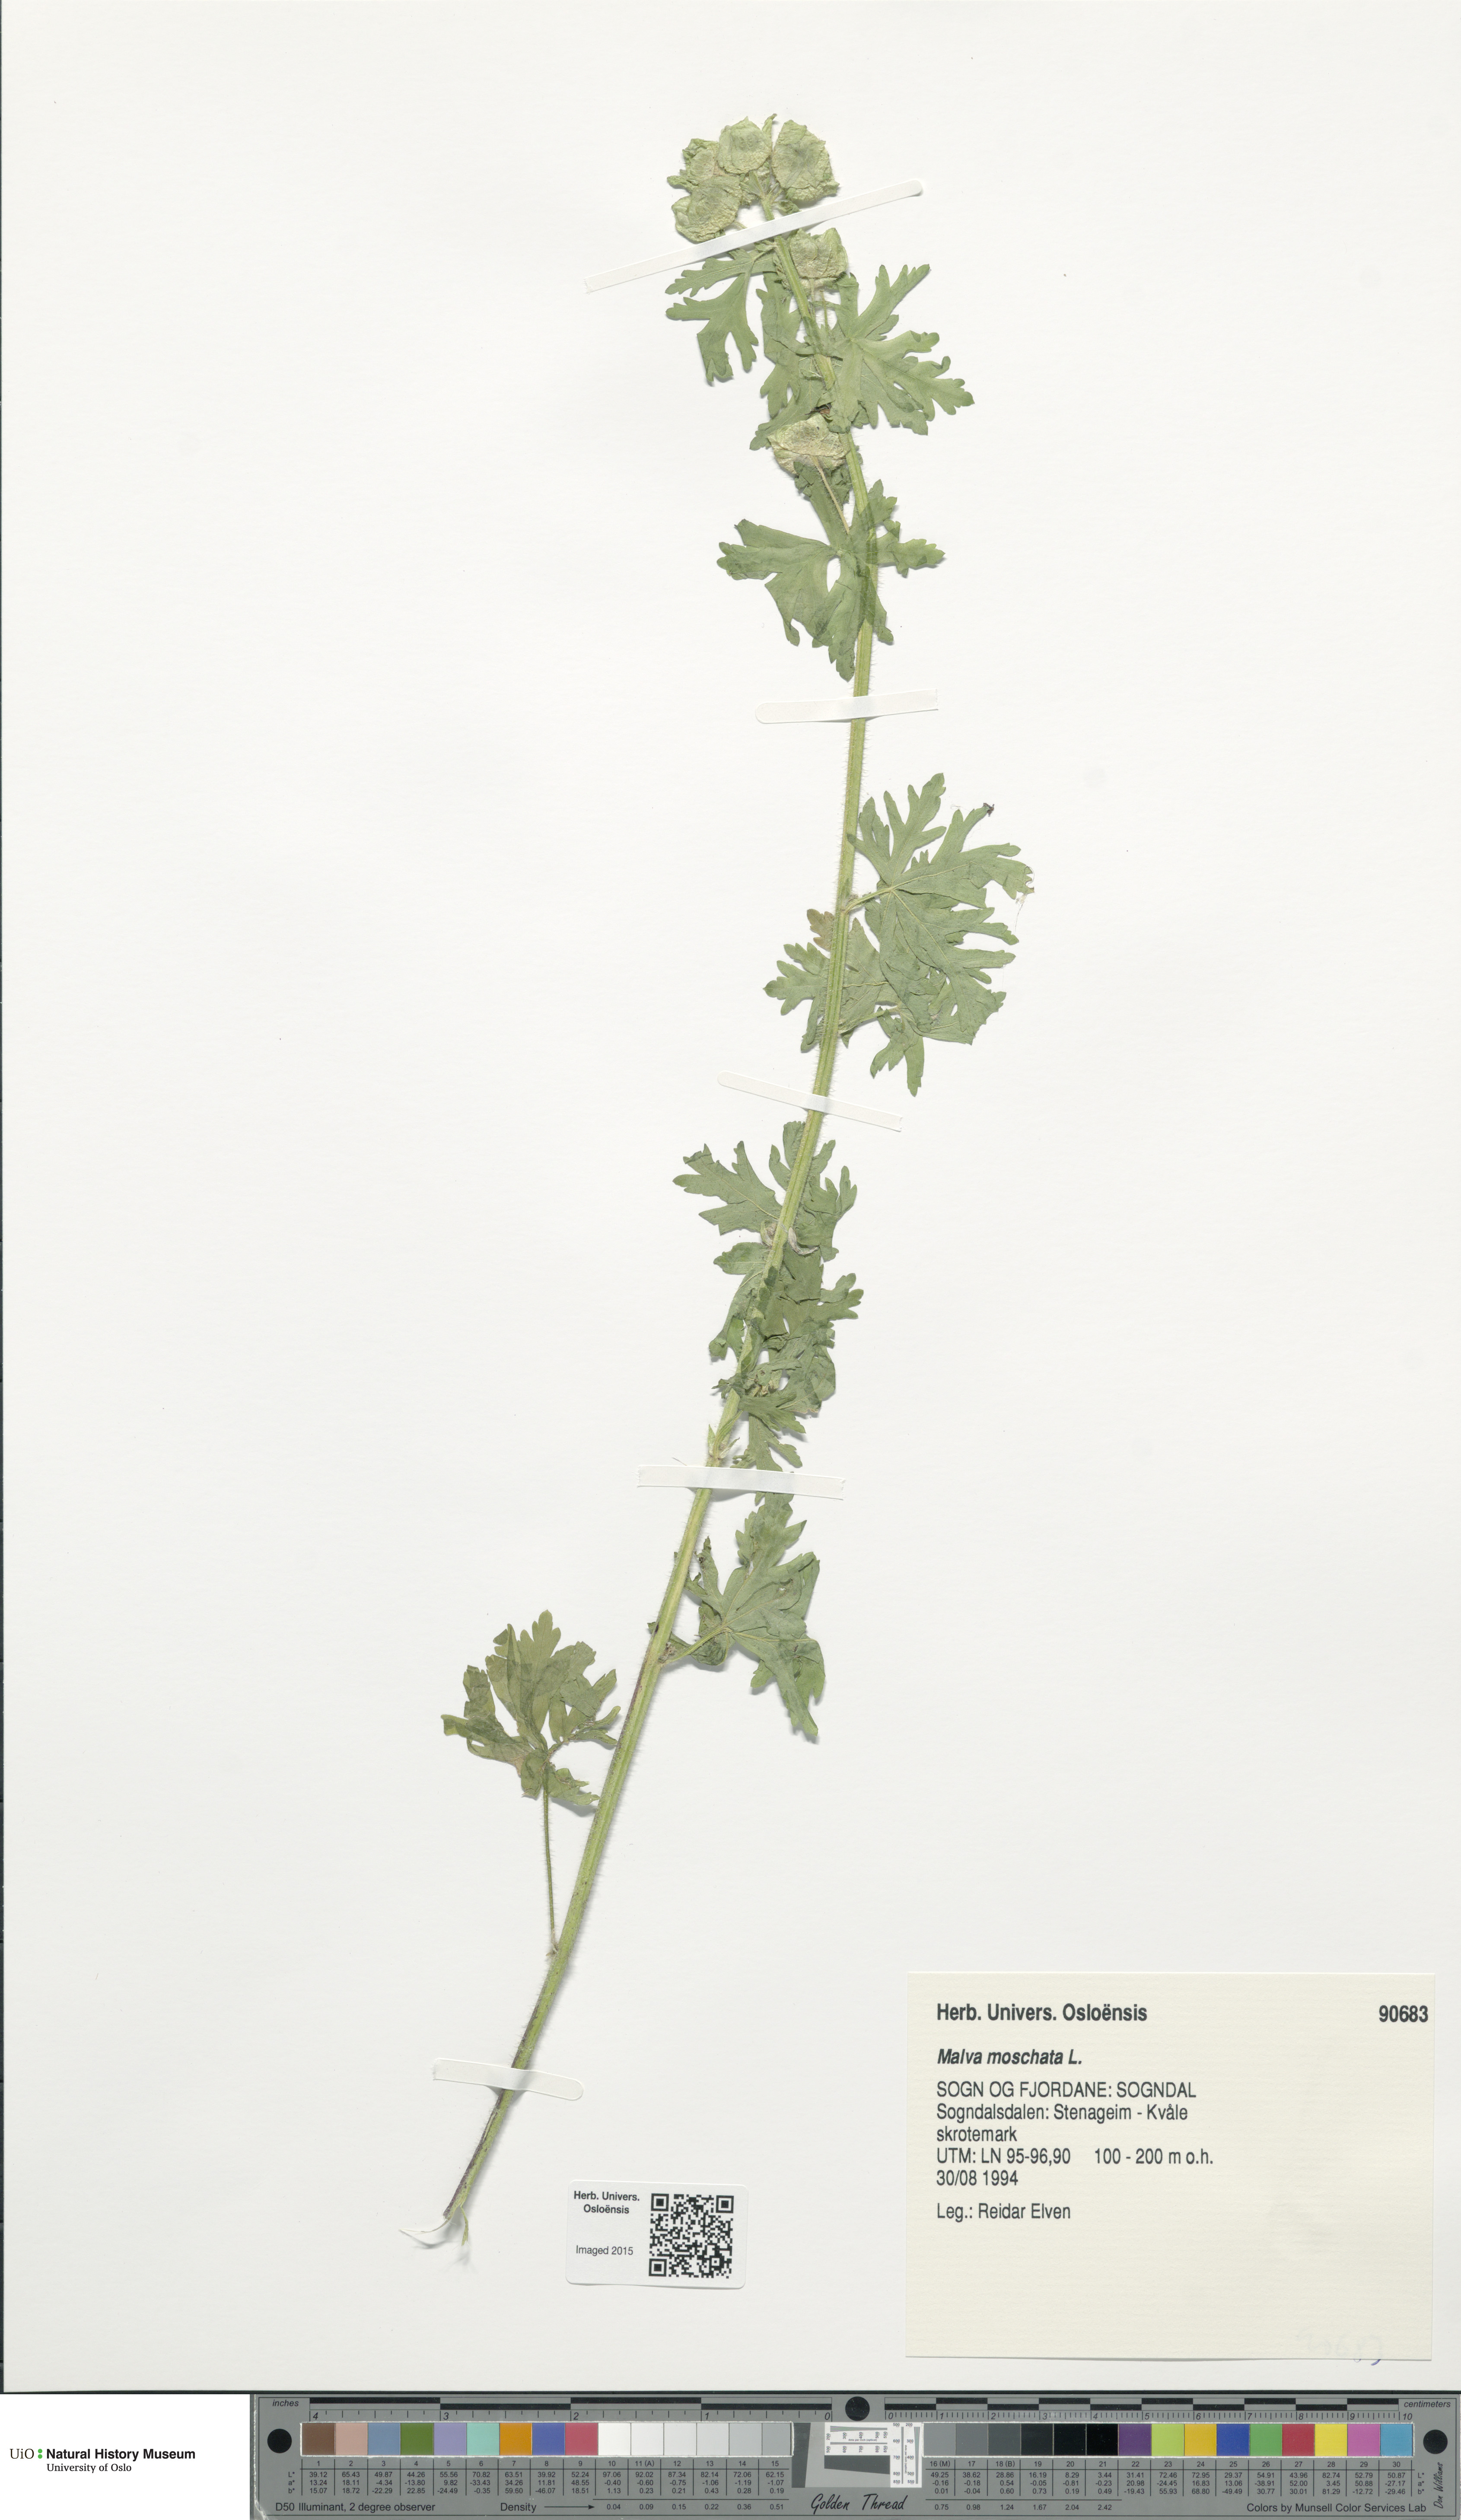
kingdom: Plantae
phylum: Tracheophyta
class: Magnoliopsida
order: Malvales
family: Malvaceae
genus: Malva
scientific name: Malva moschata
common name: Musk mallow
